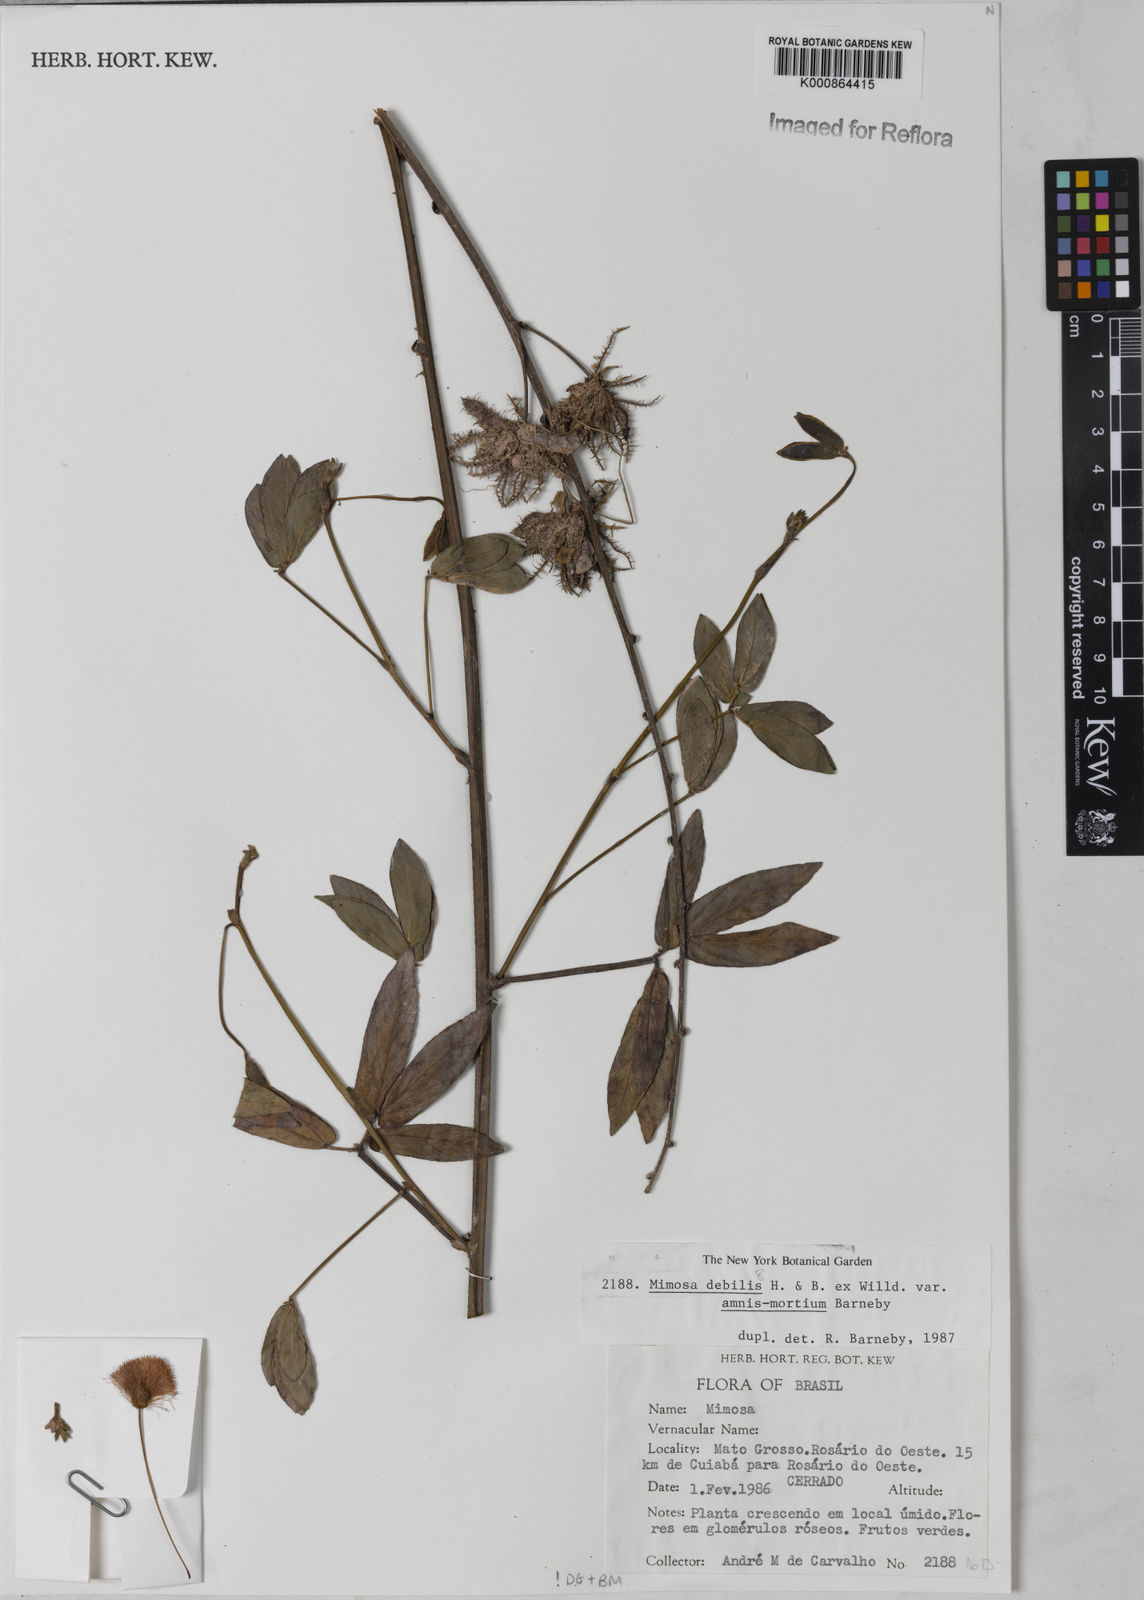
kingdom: Plantae
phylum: Tracheophyta
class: Magnoliopsida
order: Fabales
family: Fabaceae
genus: Mimosa
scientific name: Mimosa debilis
